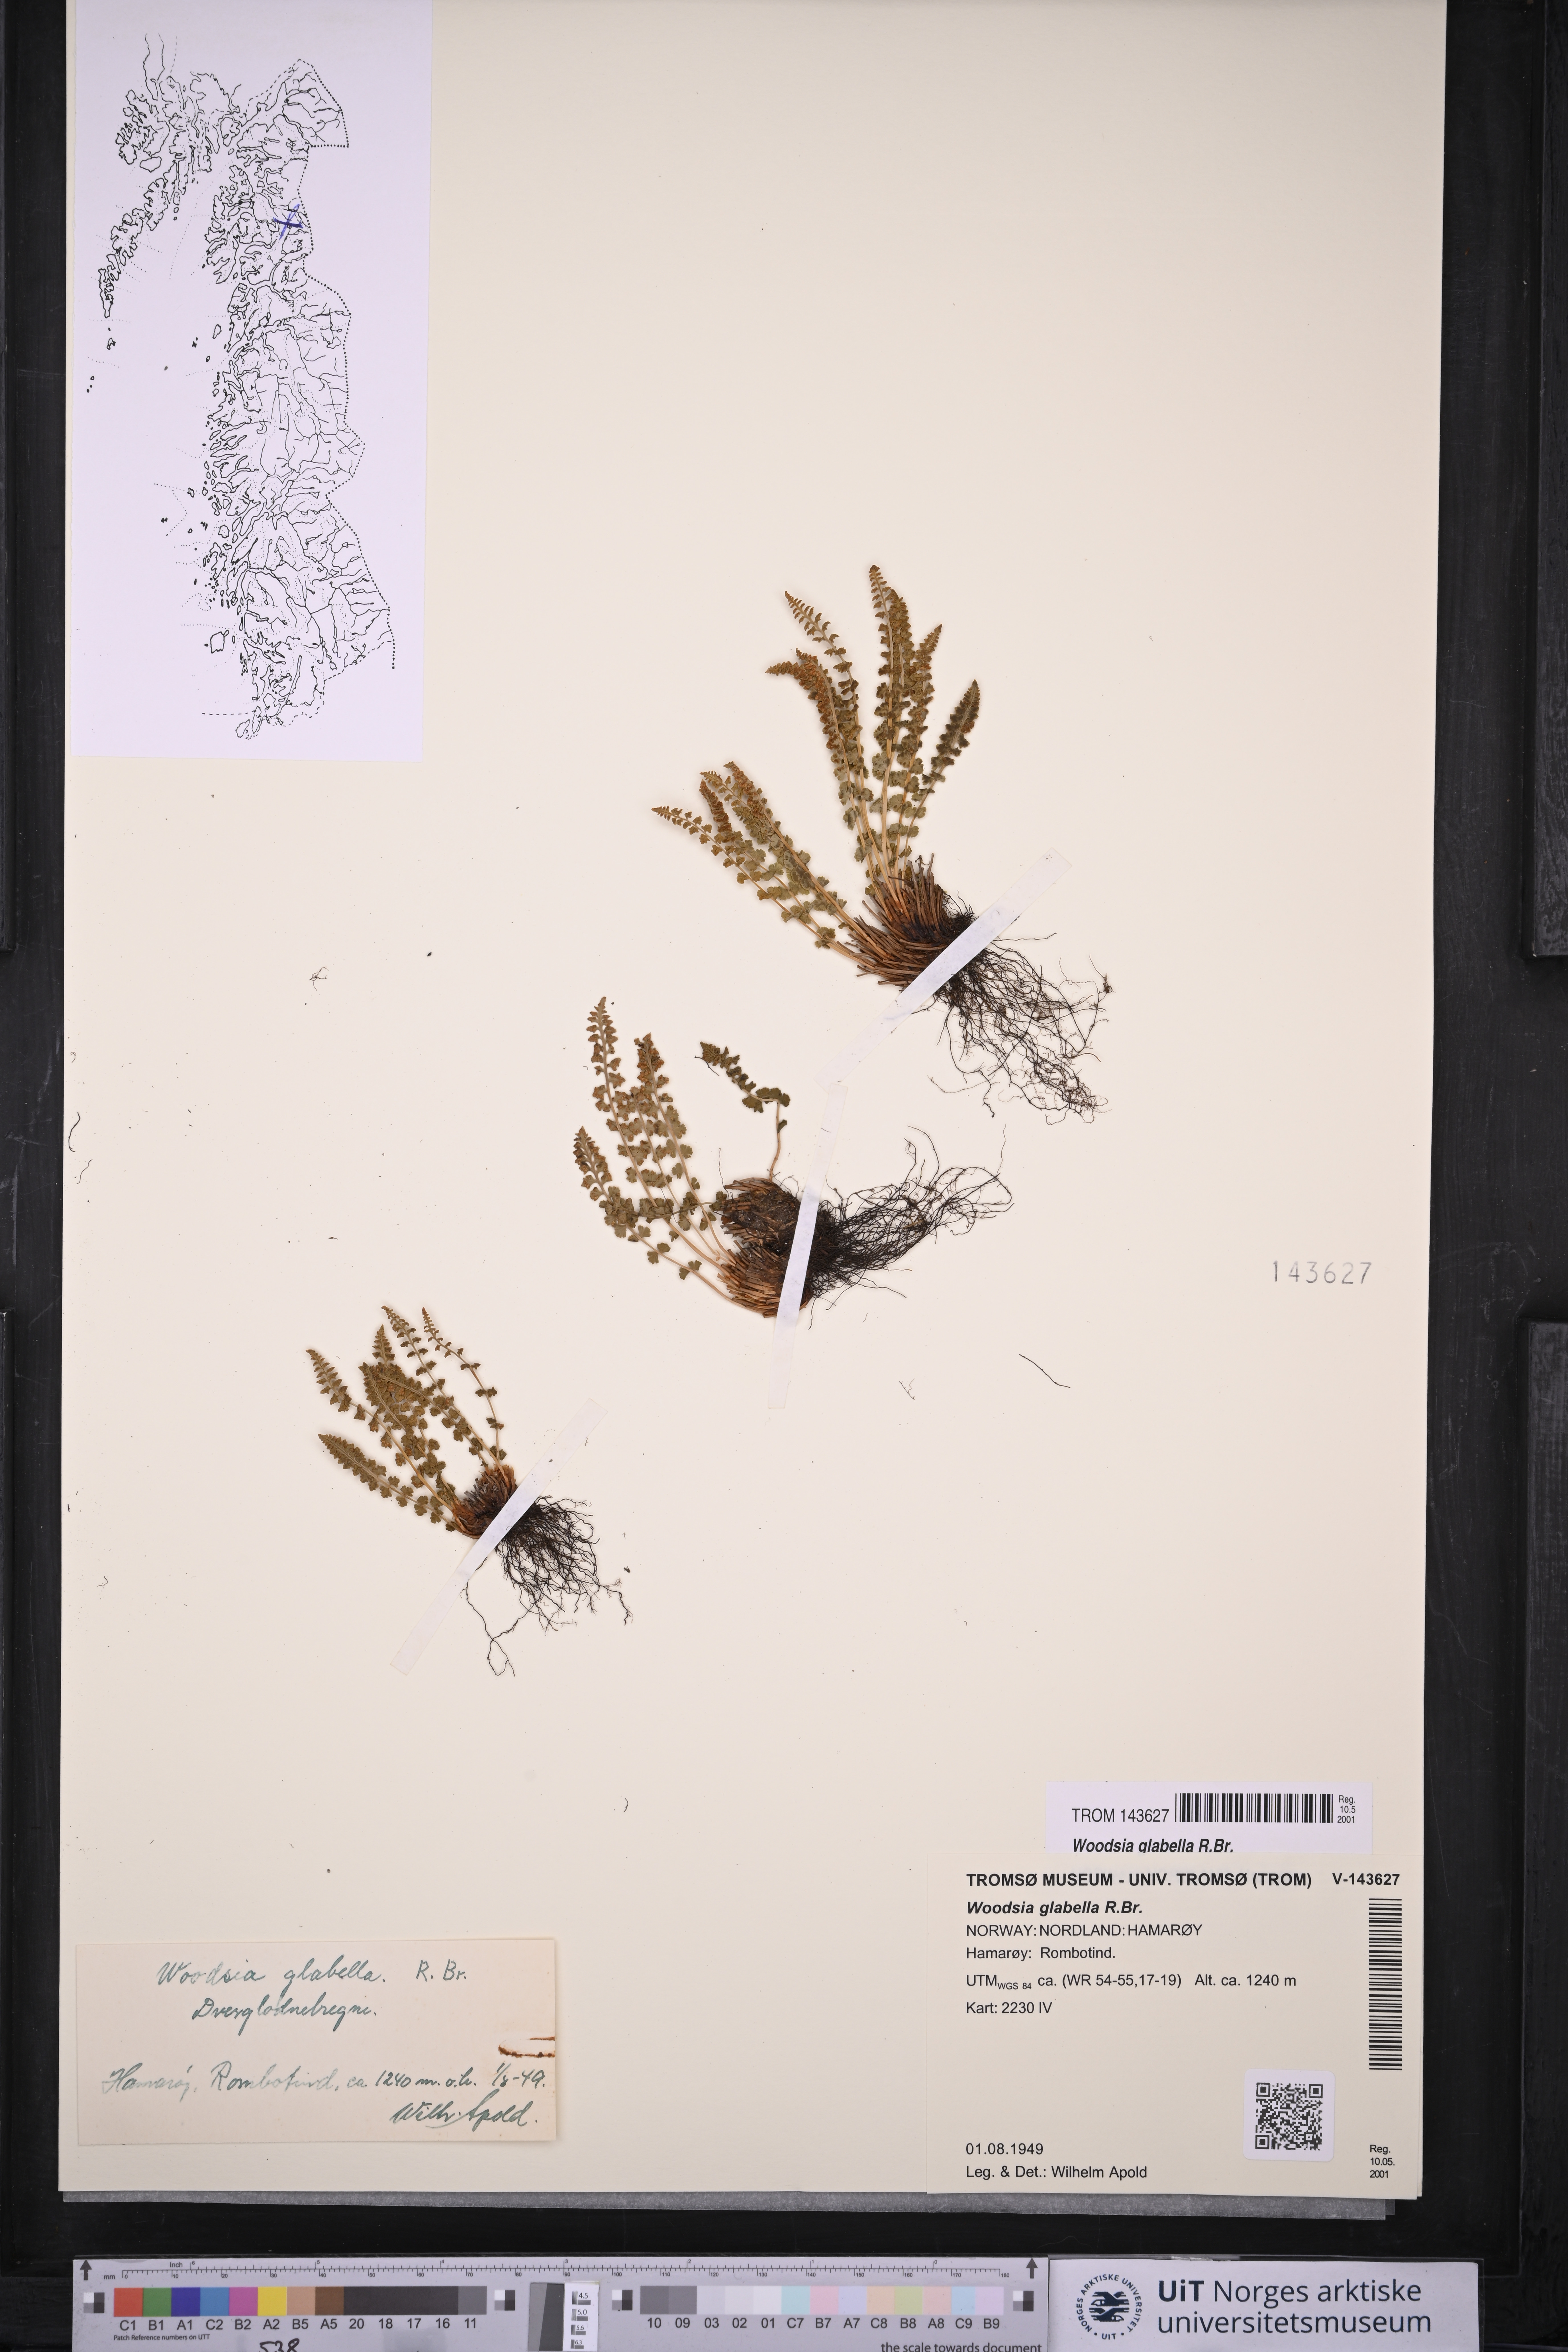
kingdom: Plantae
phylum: Tracheophyta
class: Polypodiopsida
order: Polypodiales
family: Woodsiaceae
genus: Woodsia
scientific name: Woodsia glabella
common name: Smooth woodsia
